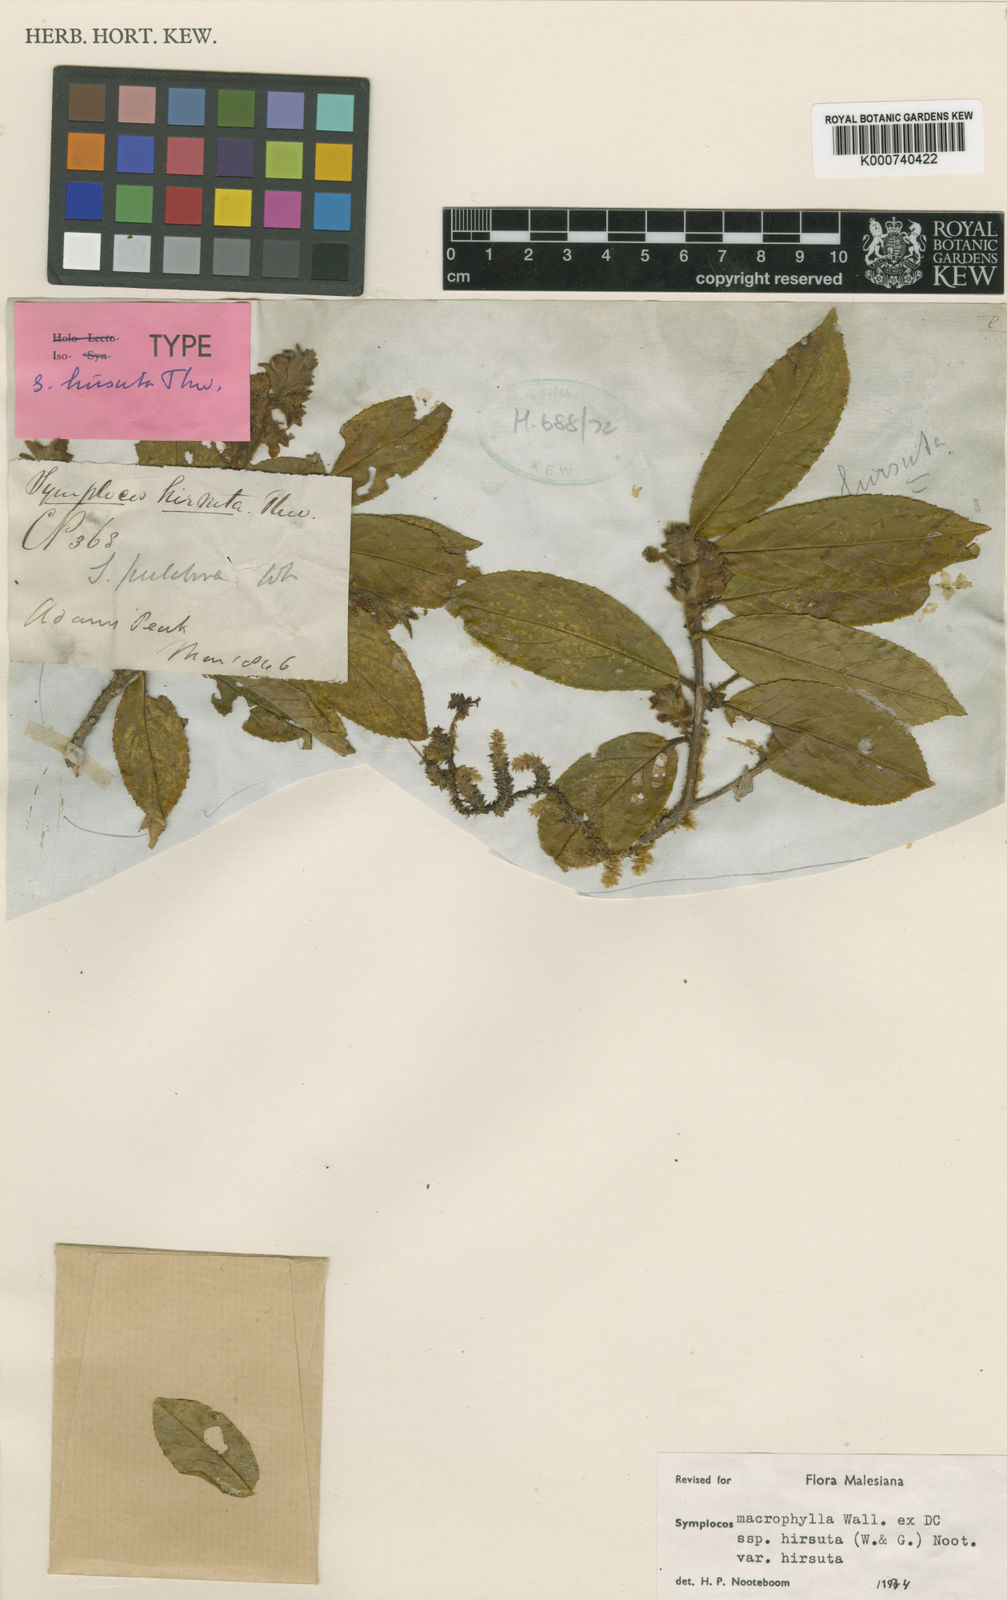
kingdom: Plantae
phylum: Tracheophyta
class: Magnoliopsida
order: Ericales
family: Symplocaceae
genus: Symplocos
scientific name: Symplocos macrophylla
